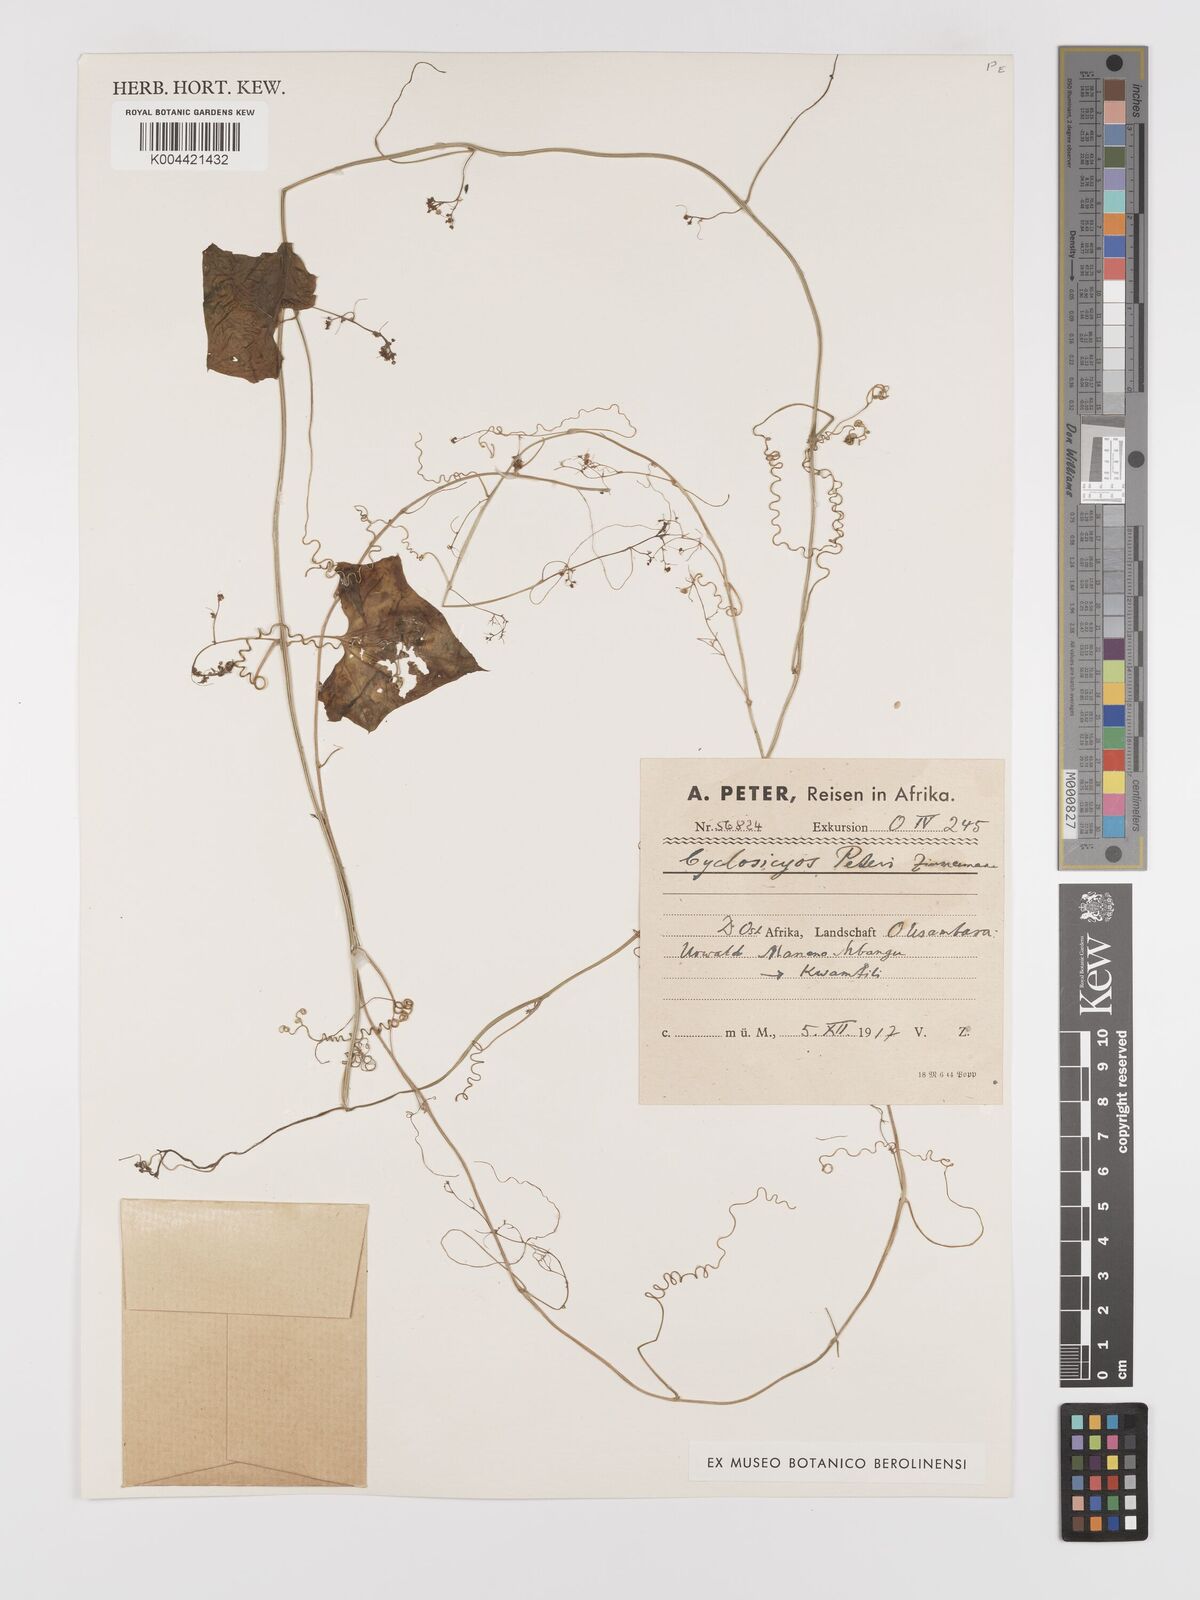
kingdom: Plantae
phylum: Tracheophyta
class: Magnoliopsida
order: Cucurbitales
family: Cucurbitaceae
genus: Cyclantheropsis
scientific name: Cyclantheropsis parviflora
